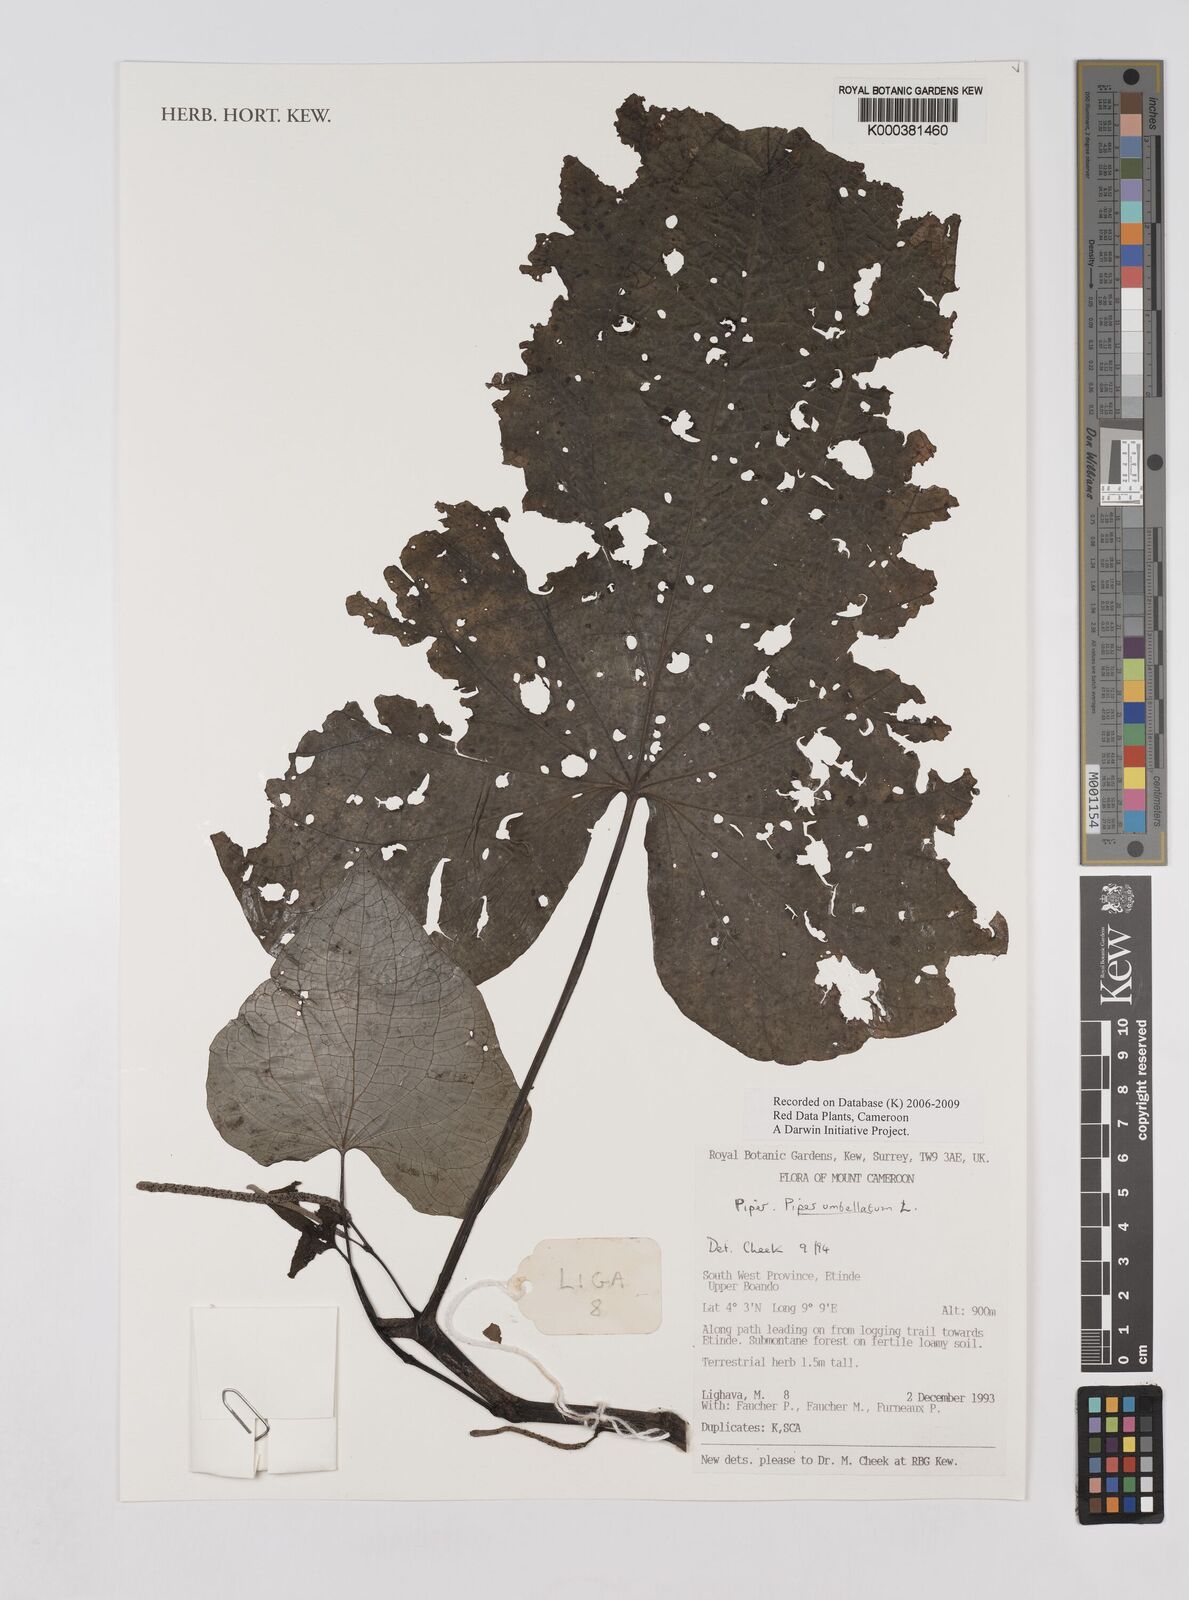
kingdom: Plantae
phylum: Tracheophyta
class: Magnoliopsida
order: Piperales
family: Piperaceae
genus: Piper
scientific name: Piper umbellatum
